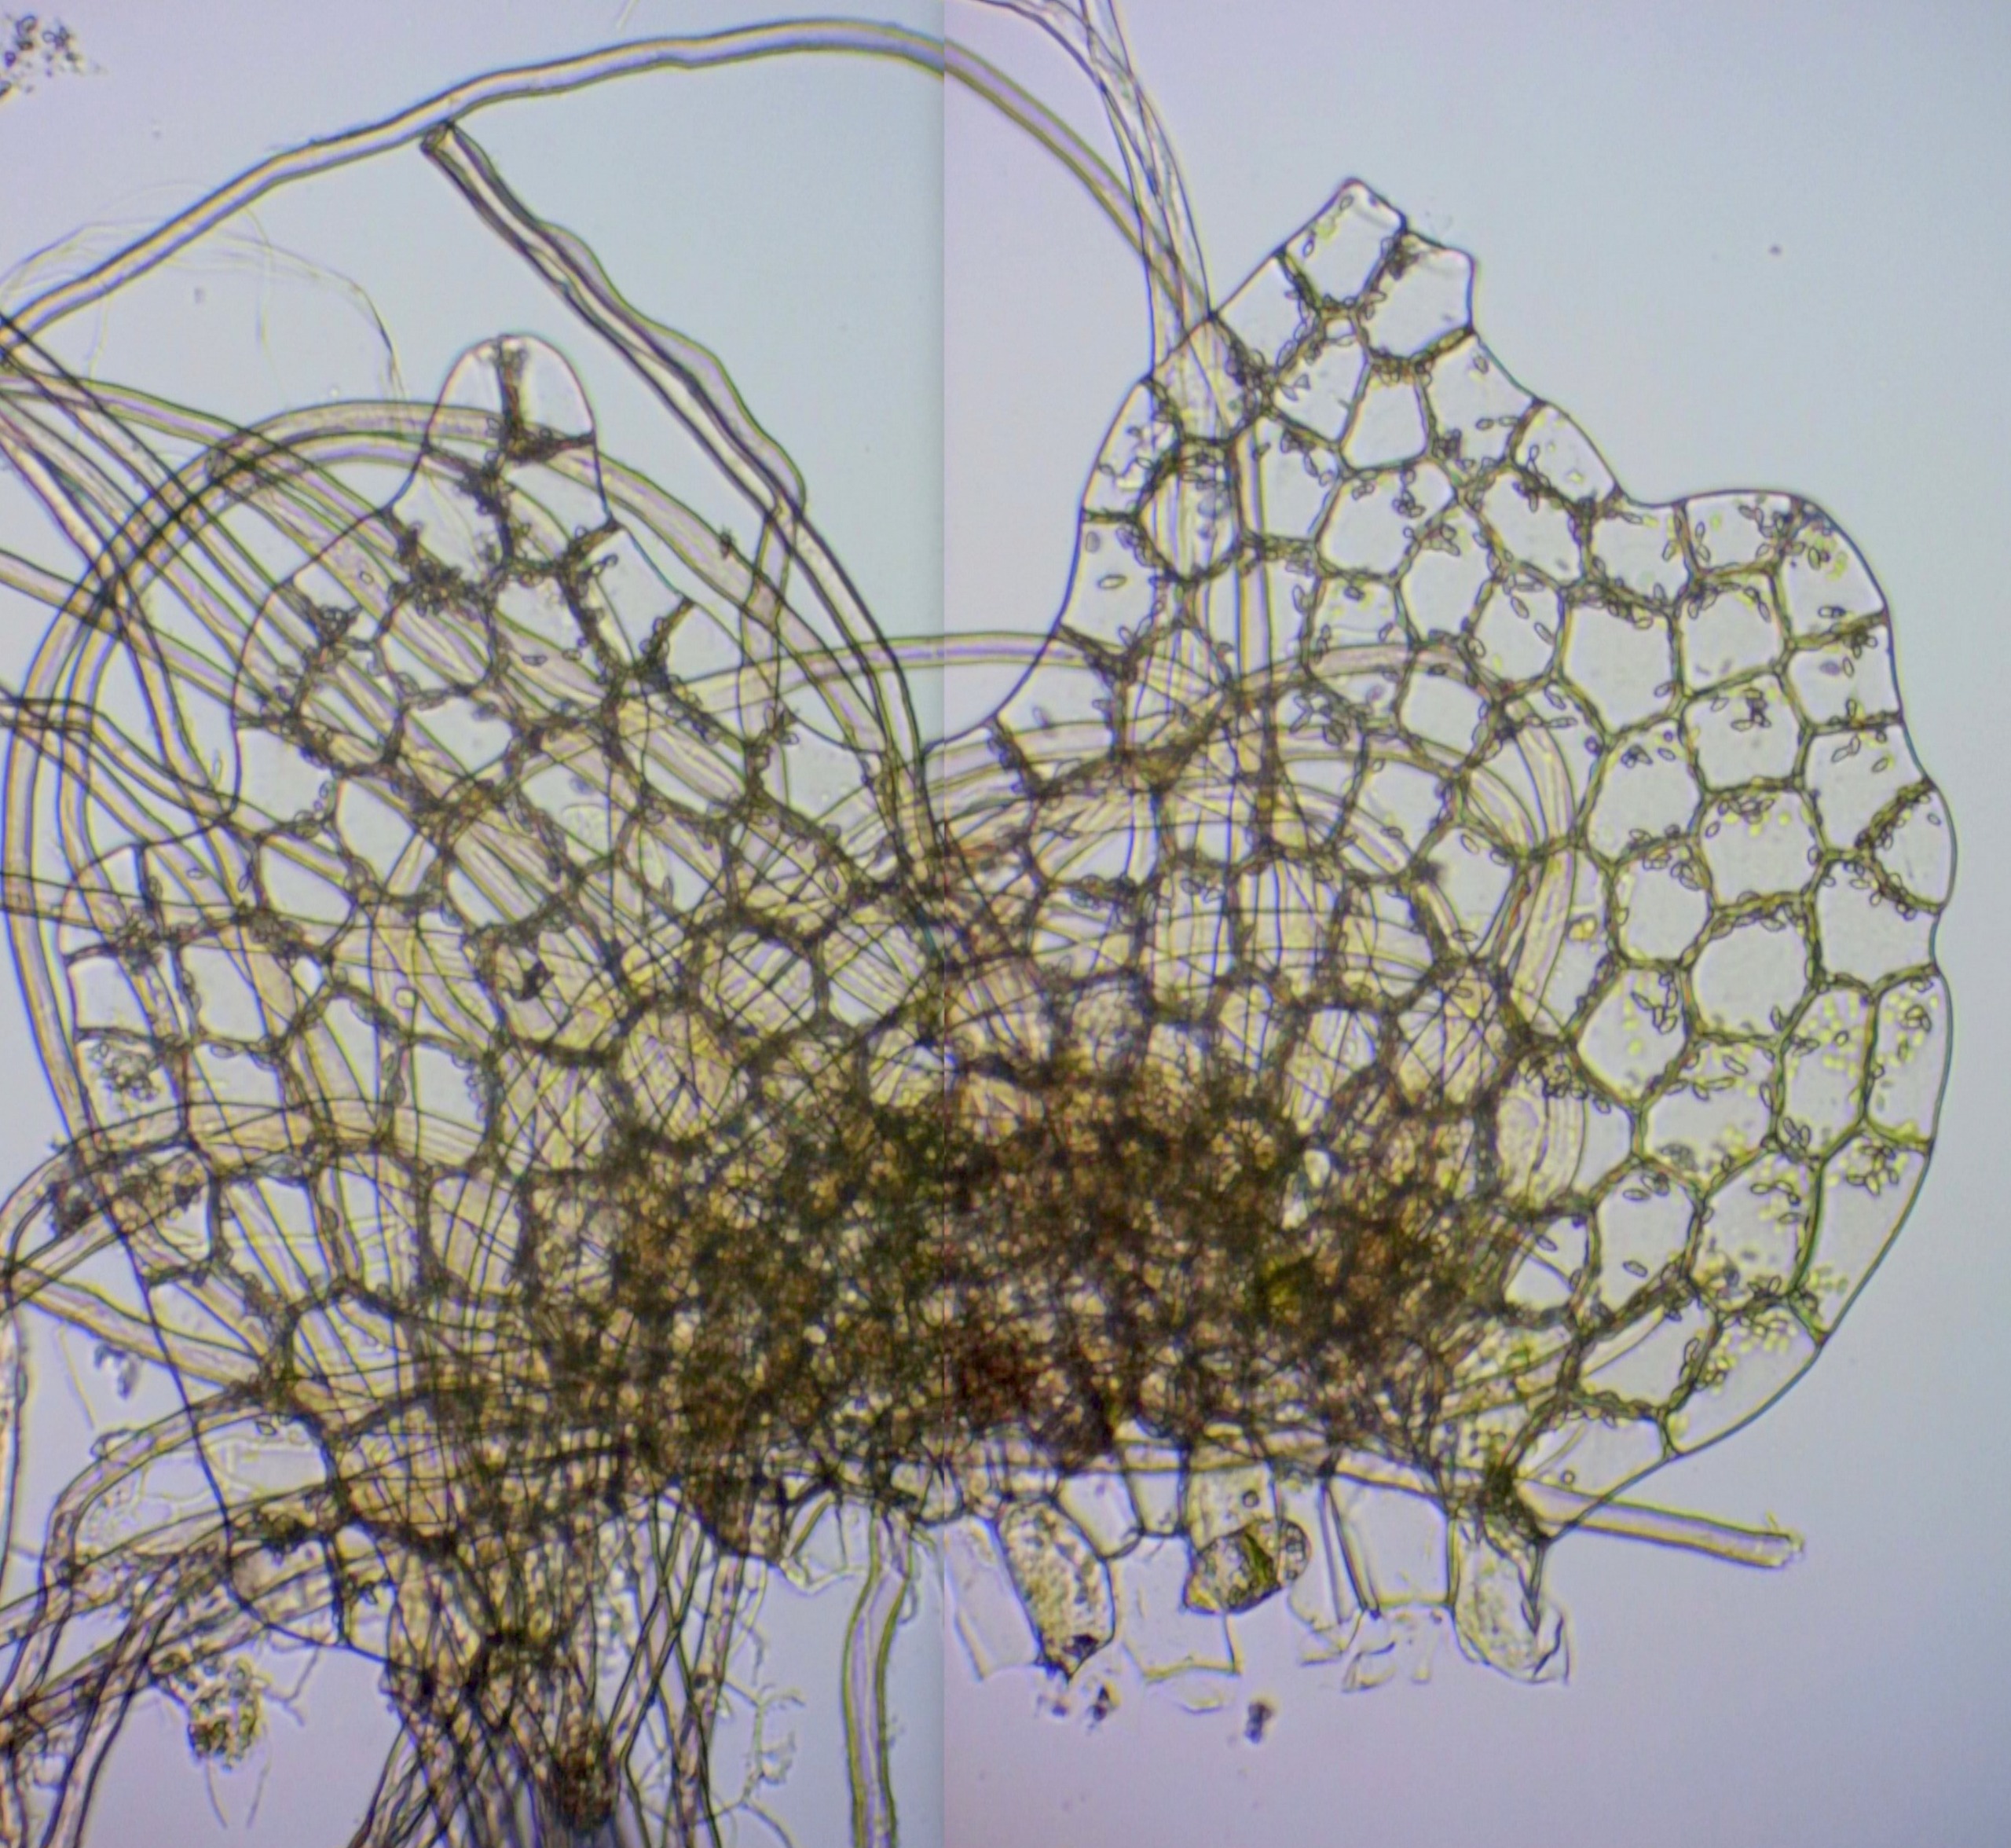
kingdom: Plantae
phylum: Marchantiophyta
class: Jungermanniopsida
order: Jungermanniales
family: Calypogeiaceae
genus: Calypogeia
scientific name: Calypogeia fissa
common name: Tvespidset sækmos
